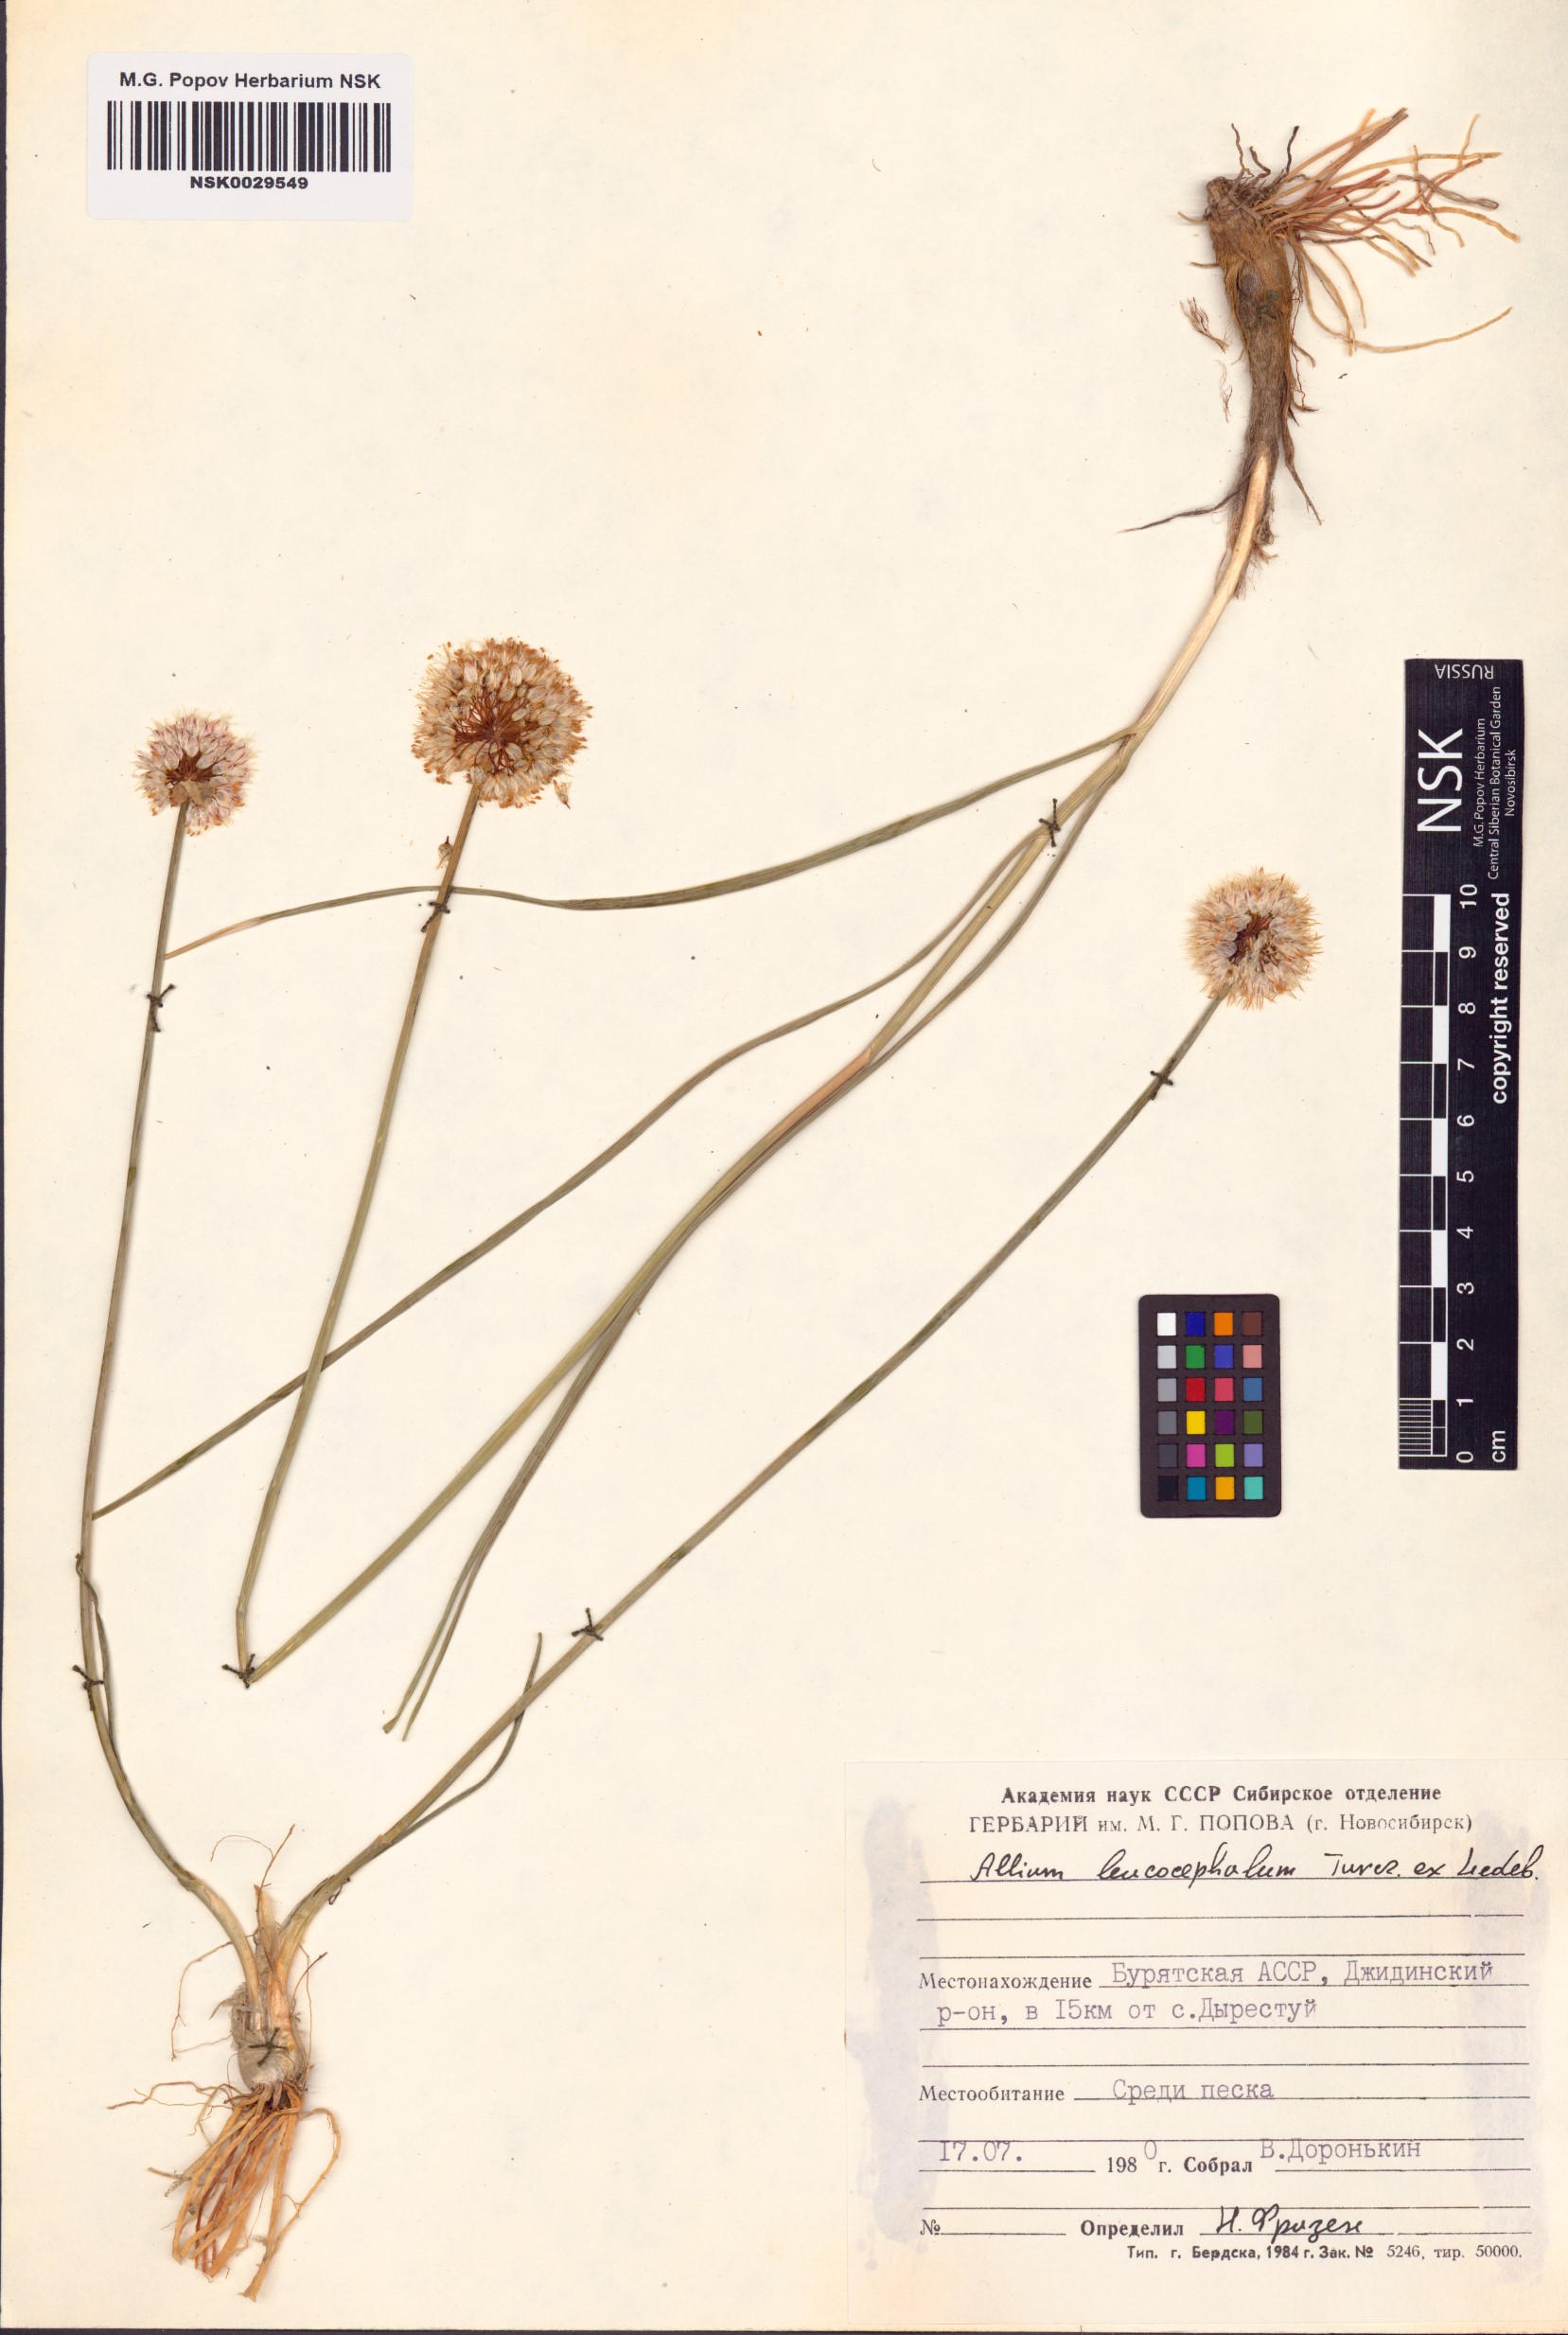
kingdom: Plantae
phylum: Tracheophyta
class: Liliopsida
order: Asparagales
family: Amaryllidaceae
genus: Allium
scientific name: Allium leucocephalum
